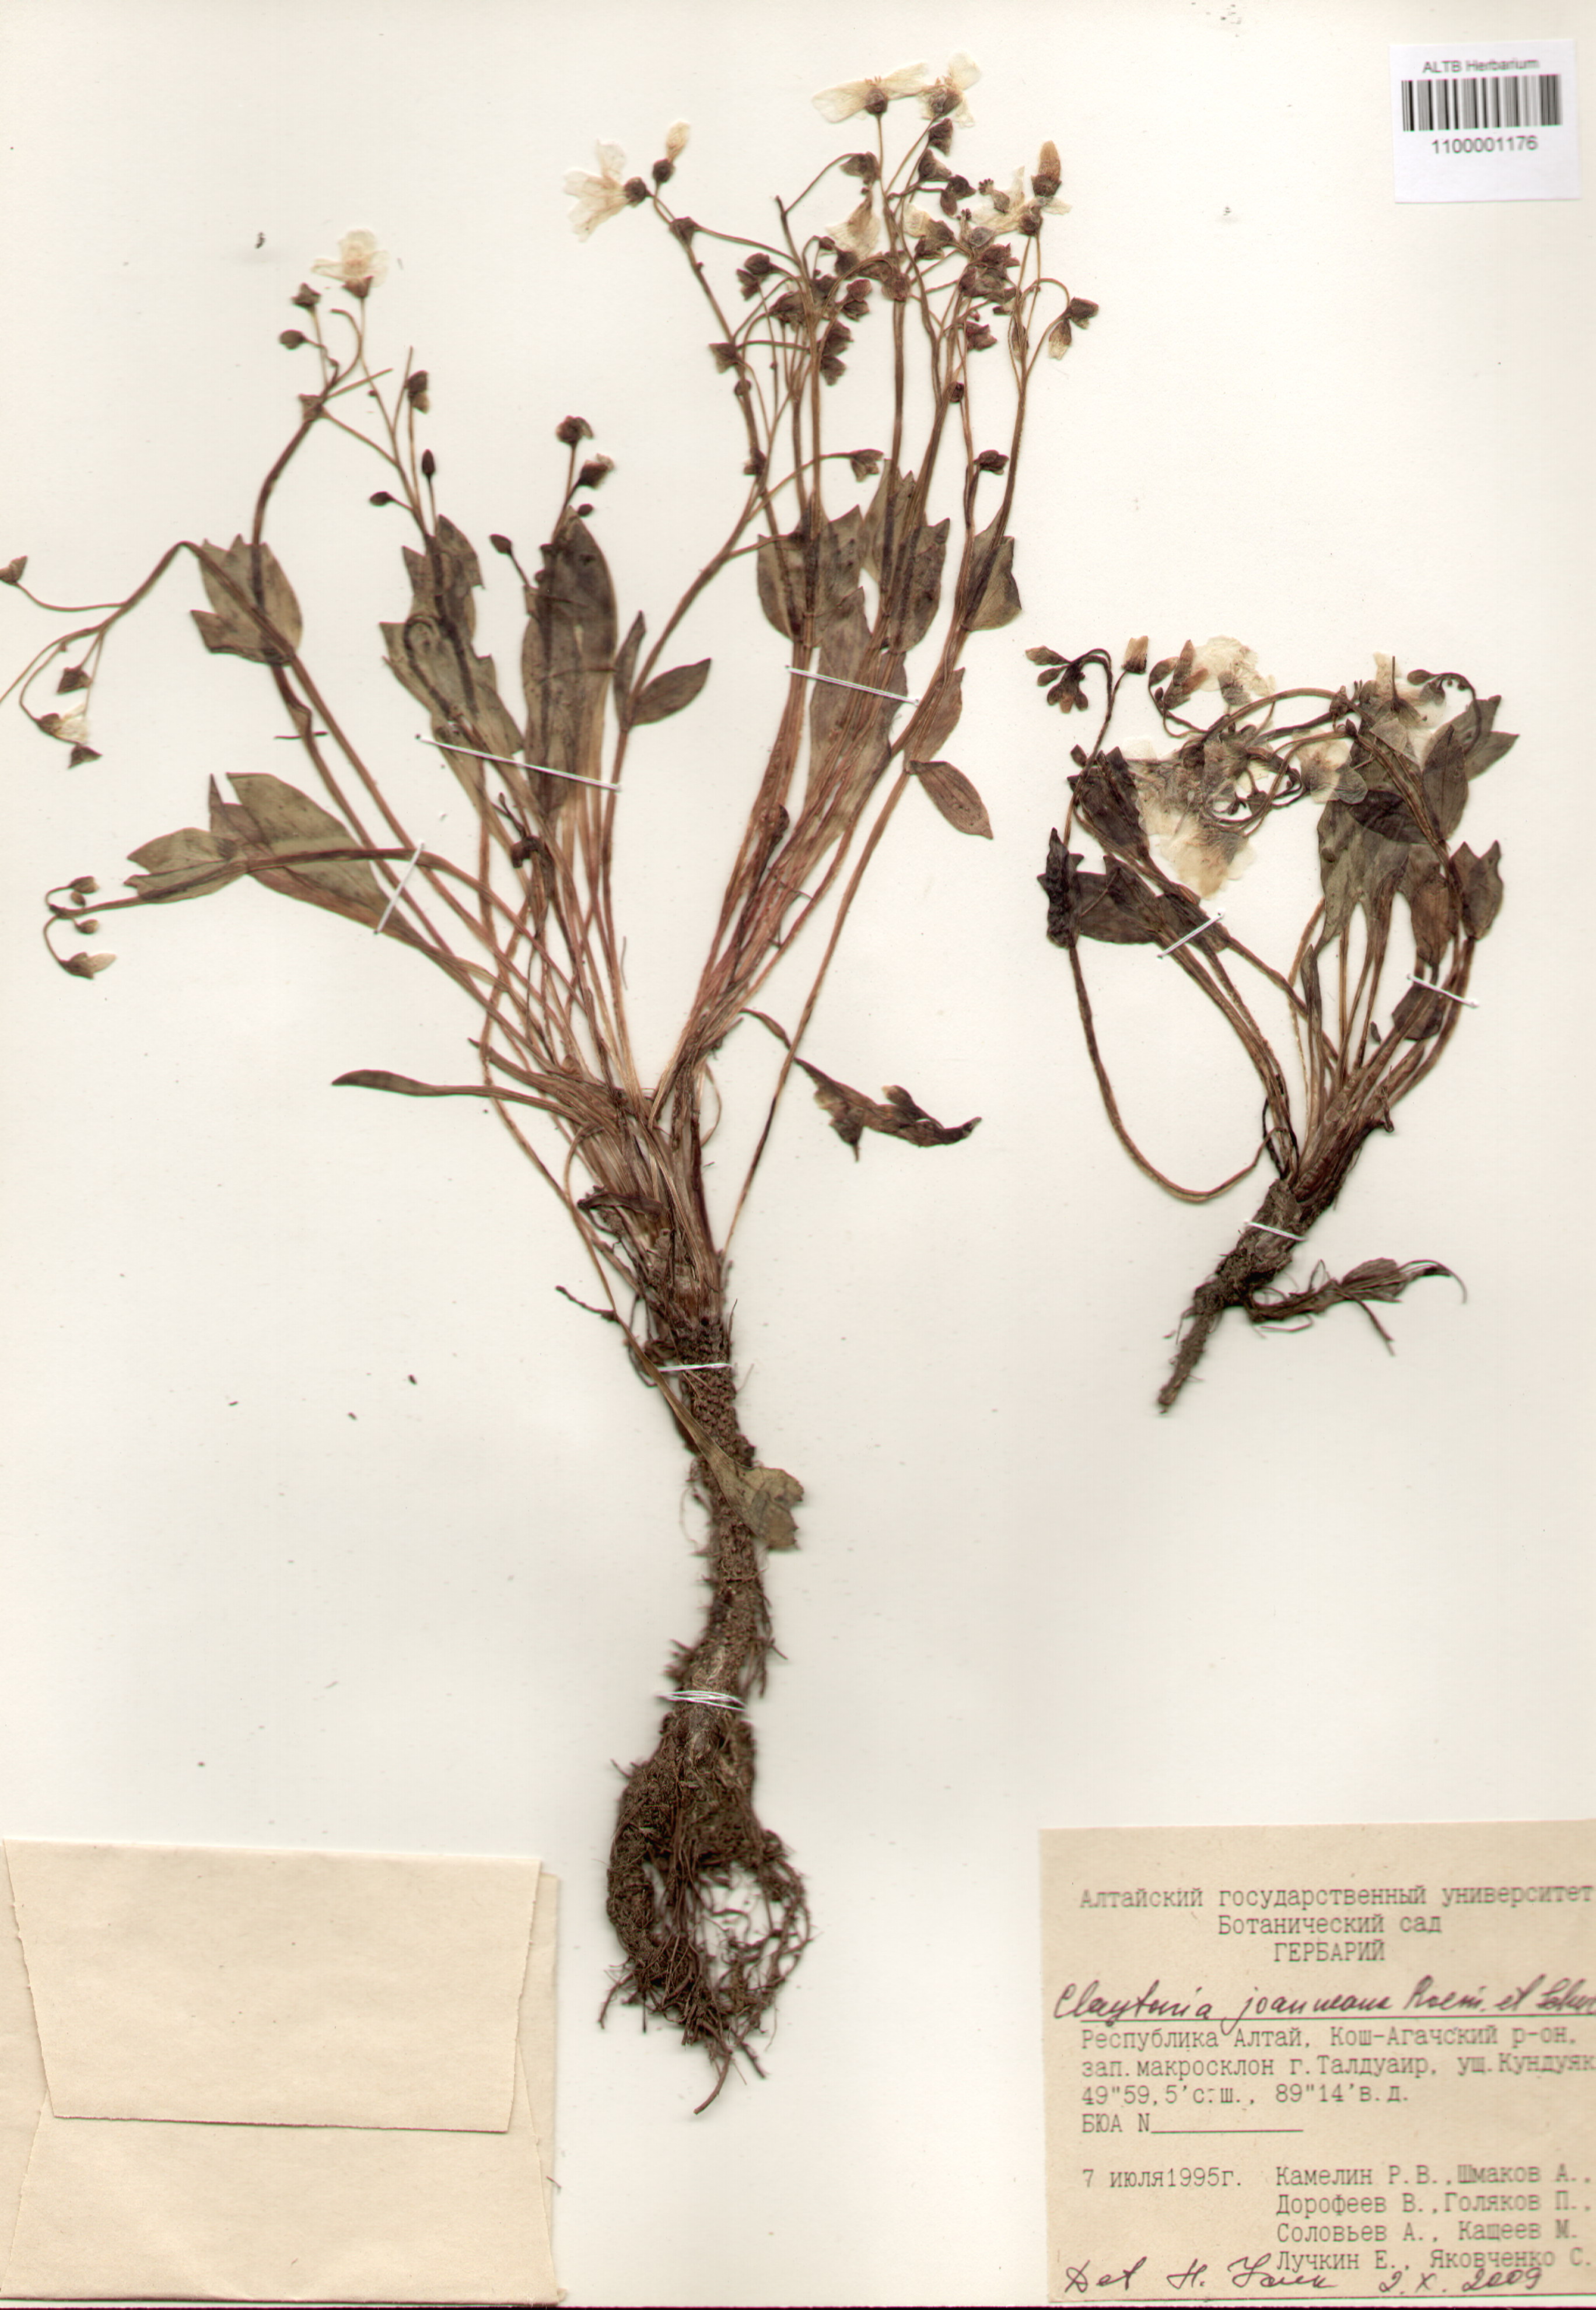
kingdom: Plantae
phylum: Tracheophyta
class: Magnoliopsida
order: Caryophyllales
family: Montiaceae
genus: Claytonia
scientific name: Claytonia joanneana
